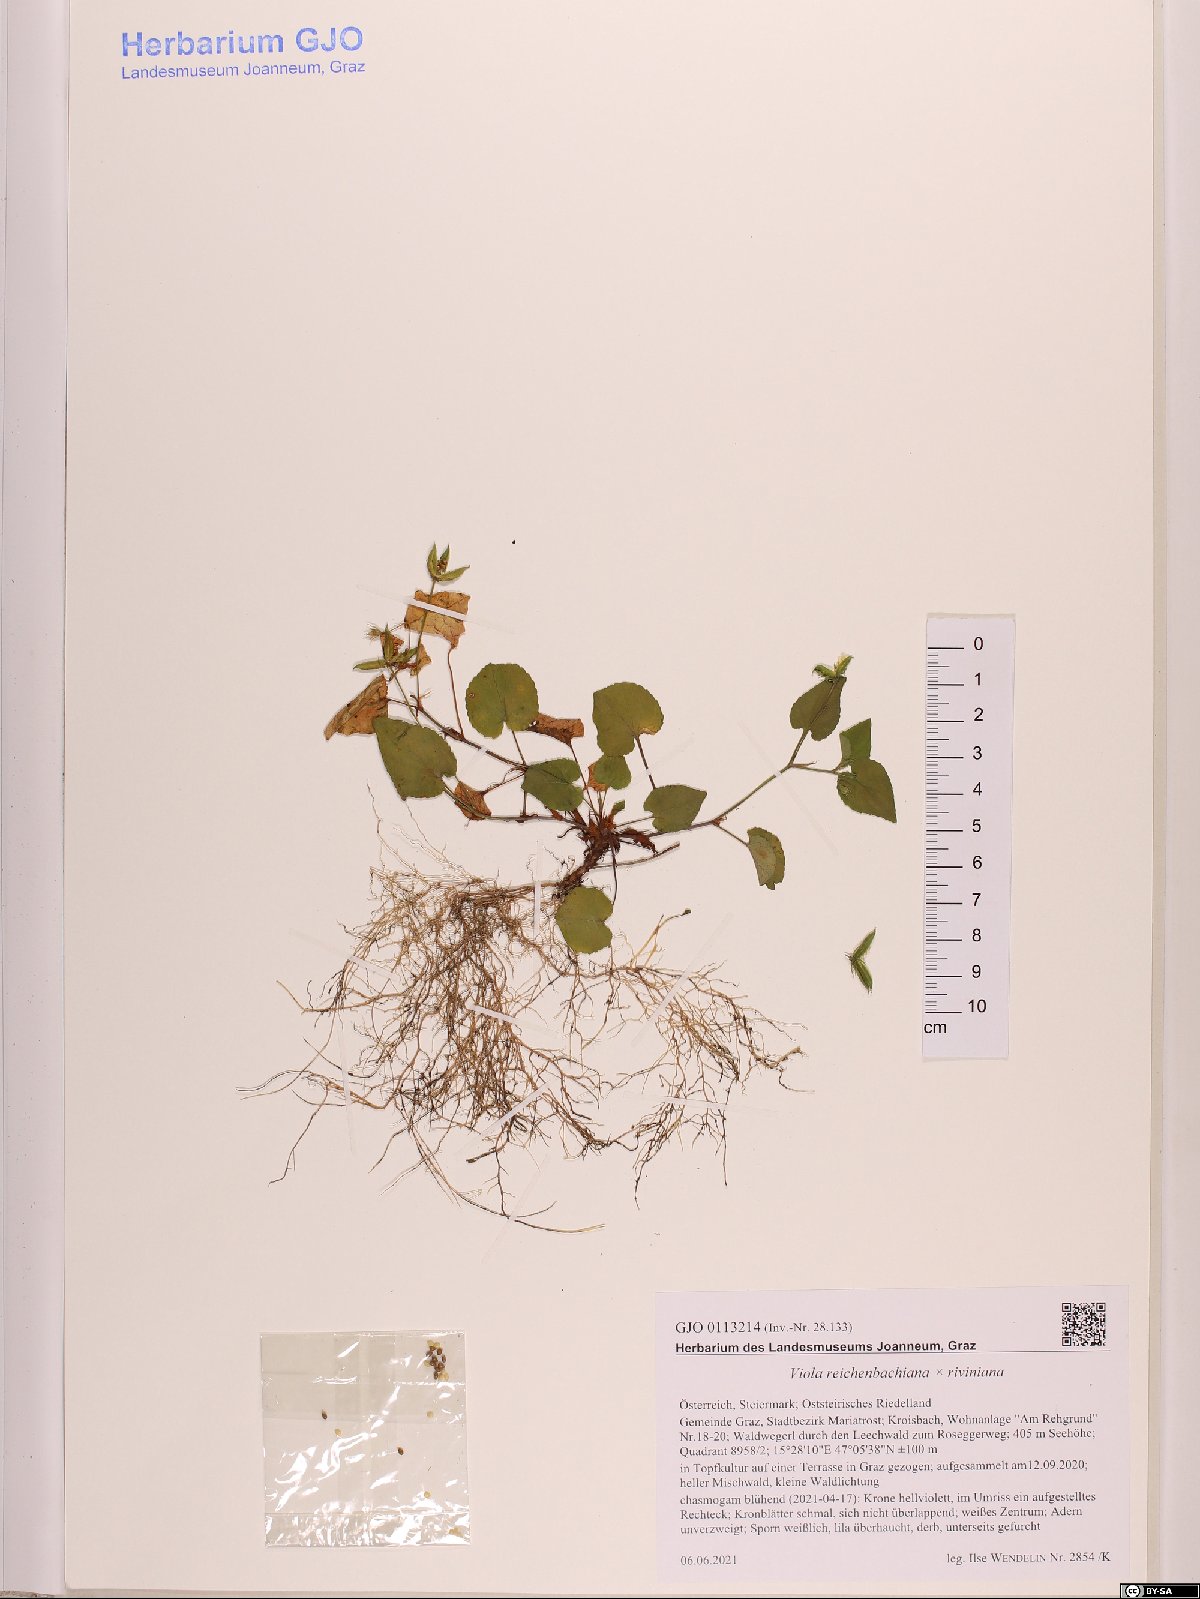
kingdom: Plantae
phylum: Tracheophyta
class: Magnoliopsida
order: Malpighiales
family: Violaceae
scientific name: Violaceae
